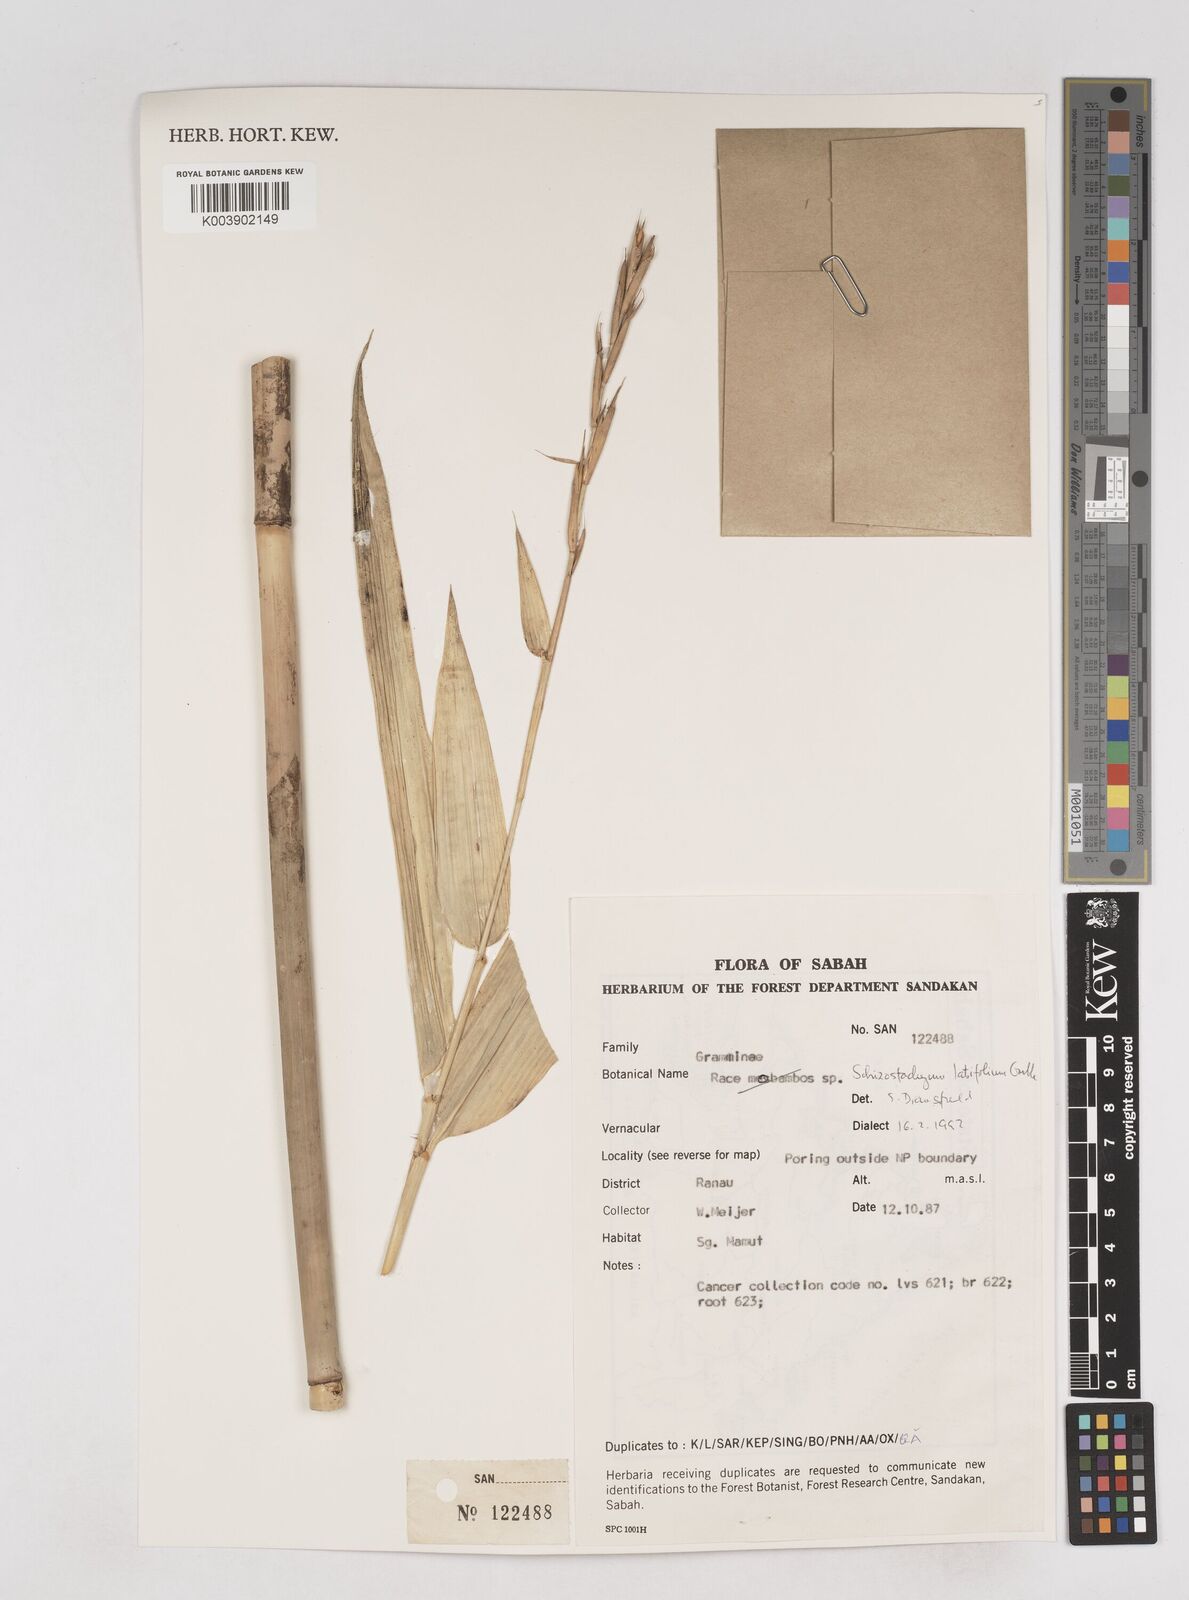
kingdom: Plantae
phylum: Tracheophyta
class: Liliopsida
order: Poales
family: Poaceae
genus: Schizostachyum
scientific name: Schizostachyum
